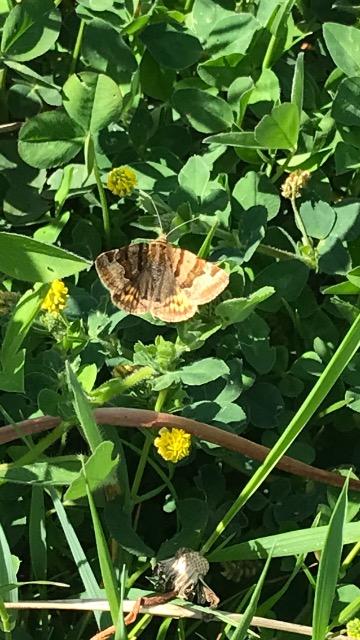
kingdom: Animalia
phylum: Arthropoda
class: Insecta
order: Lepidoptera
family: Erebidae
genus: Euclidia
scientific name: Euclidia glyphica
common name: Brun kløverugle
